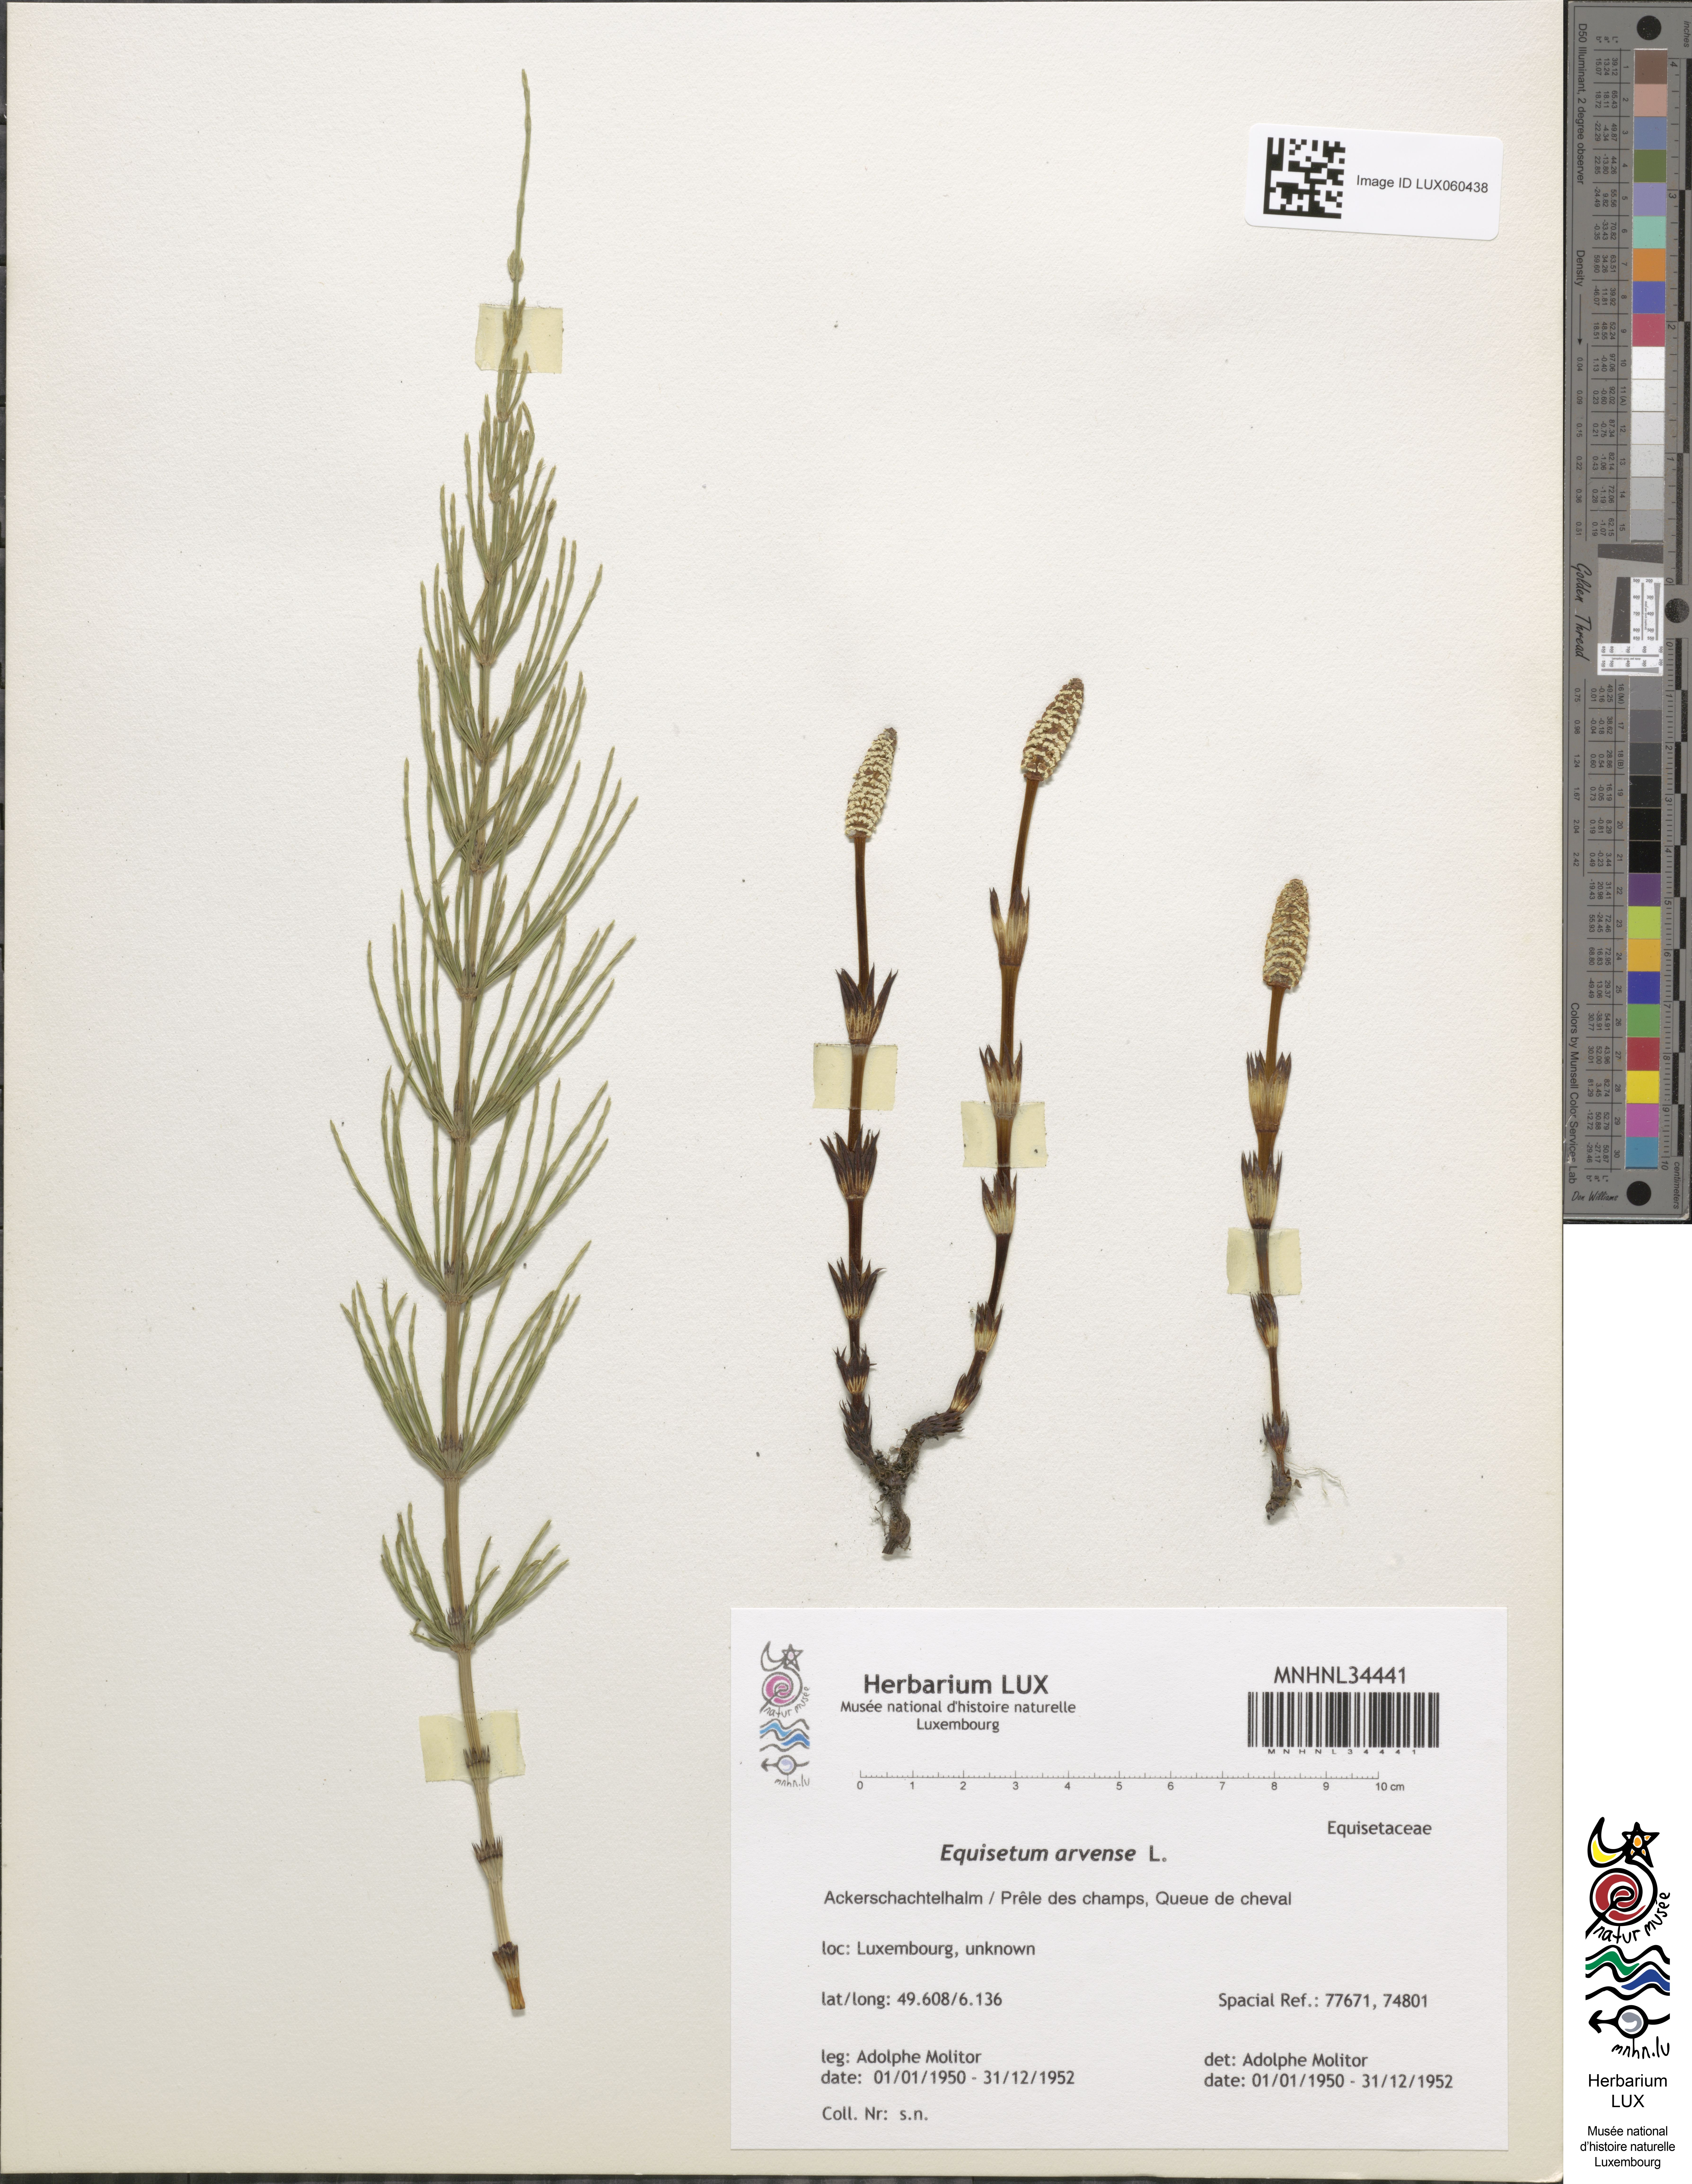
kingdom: Plantae
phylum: Tracheophyta
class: Polypodiopsida
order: Equisetales
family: Equisetaceae
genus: Equisetum
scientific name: Equisetum arvense
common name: Field horsetail
